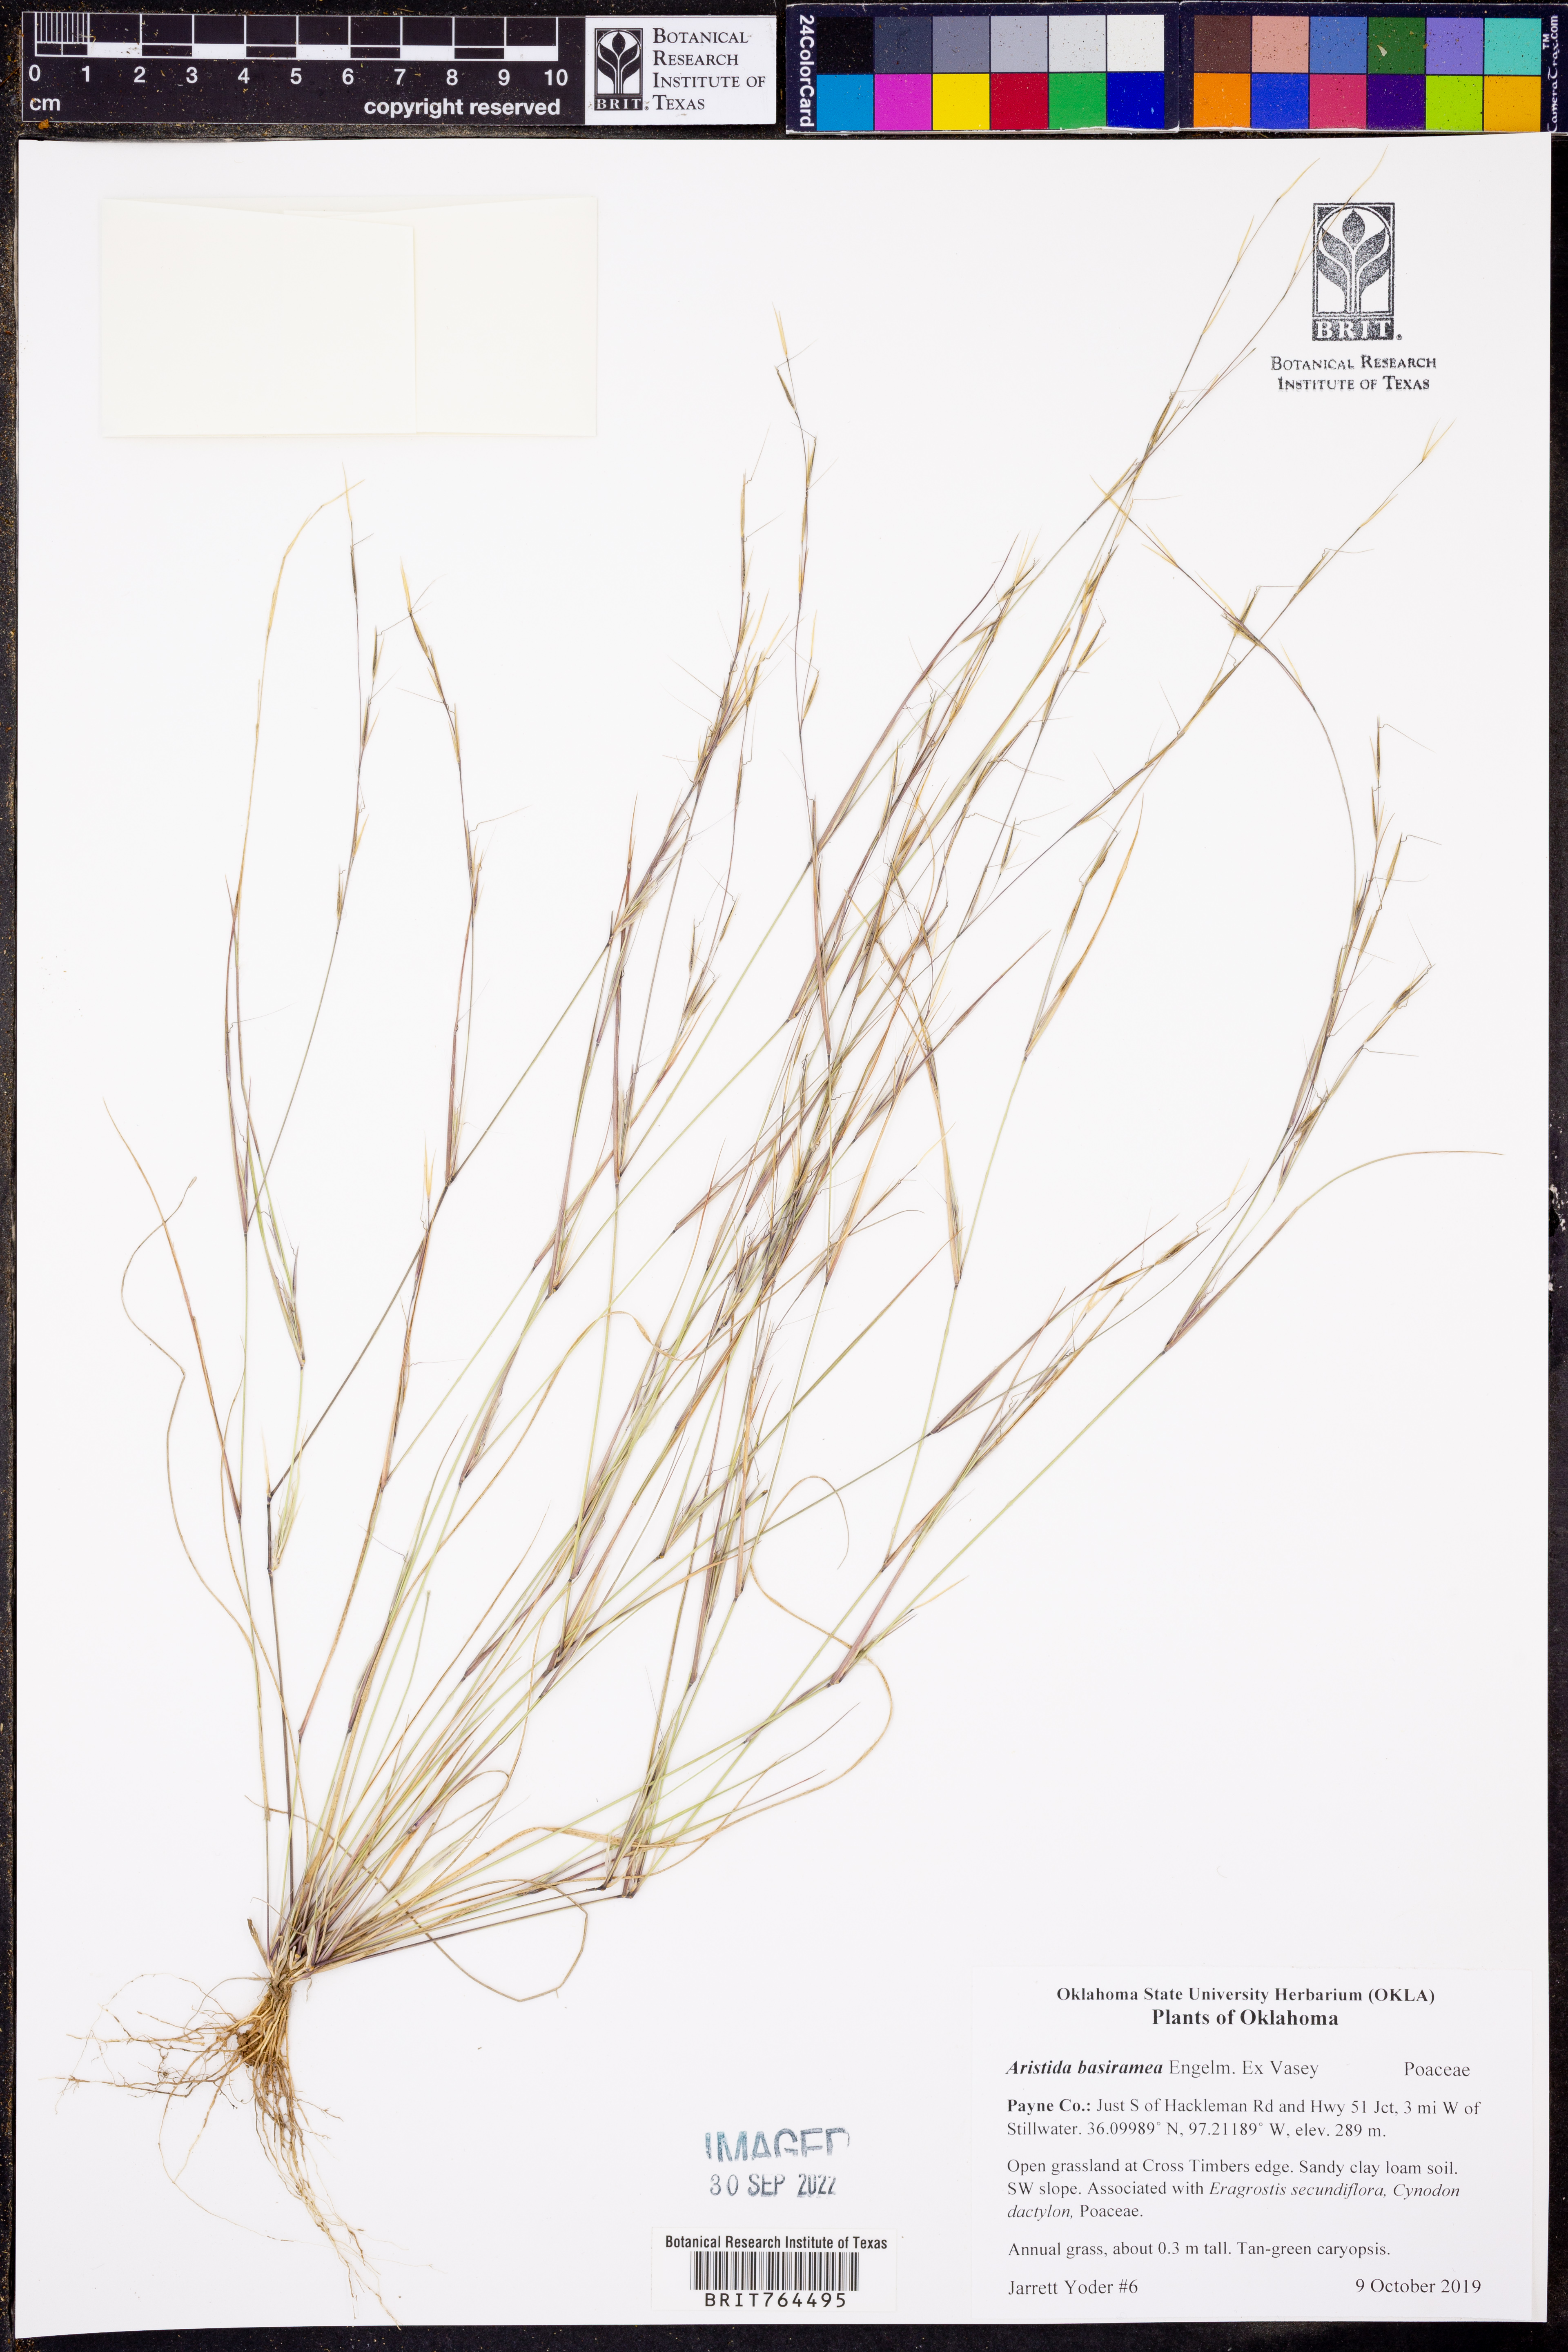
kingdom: Plantae
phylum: Tracheophyta
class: Liliopsida
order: Poales
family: Poaceae
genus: Aristida
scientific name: Aristida basiramea
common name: Forked three-awned grass
